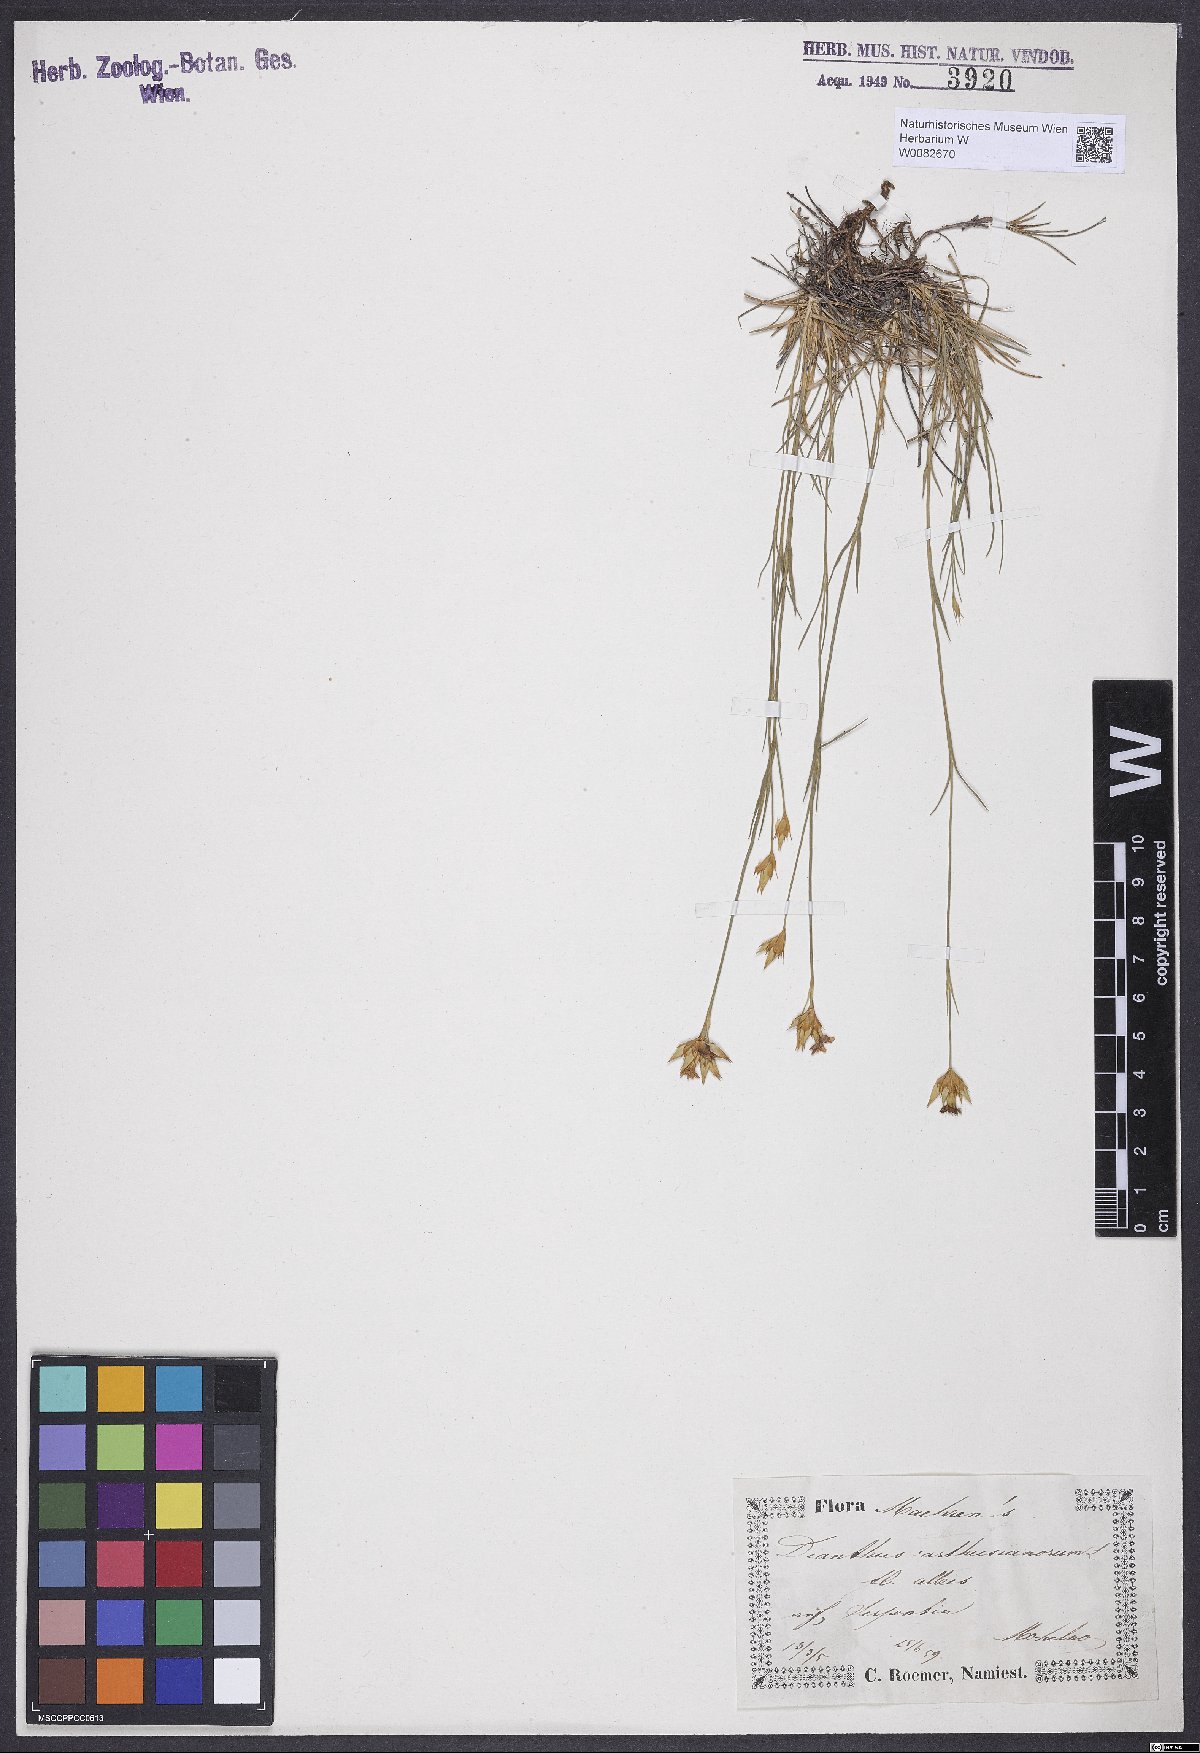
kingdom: Plantae
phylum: Tracheophyta
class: Magnoliopsida
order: Caryophyllales
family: Caryophyllaceae
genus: Dianthus
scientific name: Dianthus carthusianorum
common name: Carthusian pink
